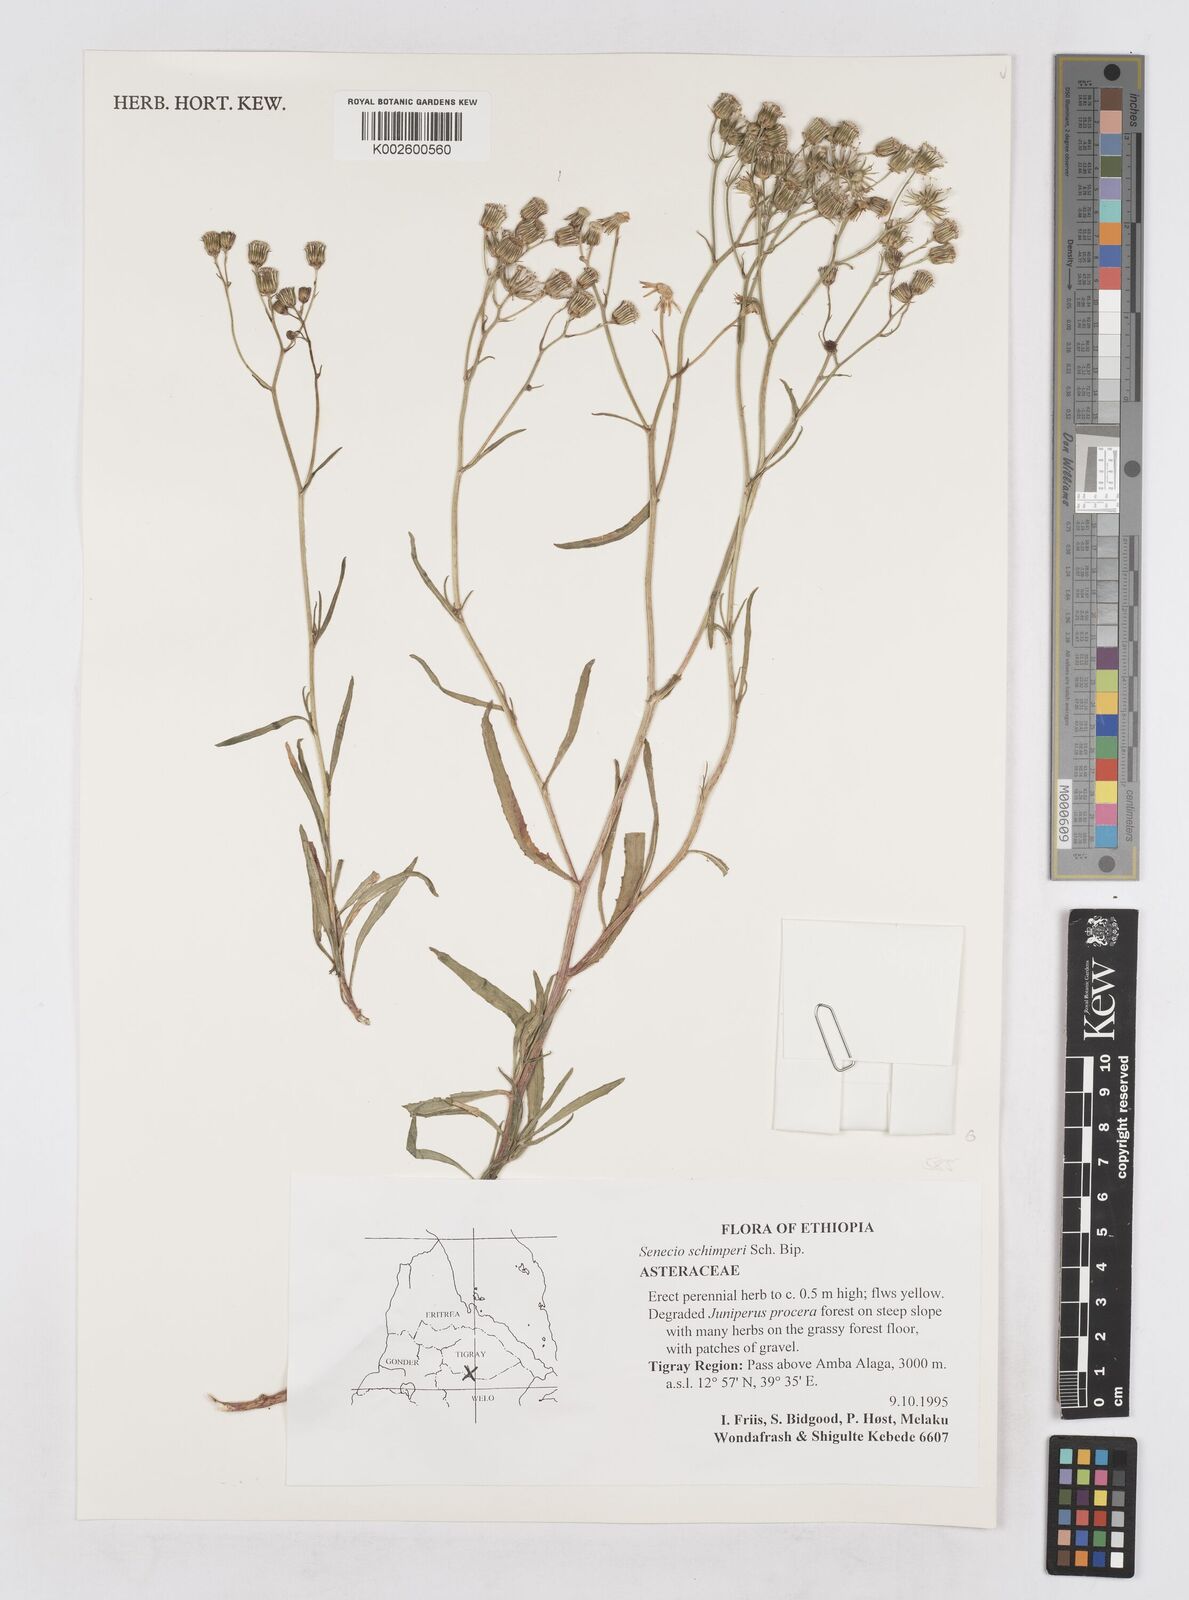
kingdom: Plantae
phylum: Tracheophyta
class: Magnoliopsida
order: Asterales
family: Asteraceae
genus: Senecio
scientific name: Senecio schimperi
